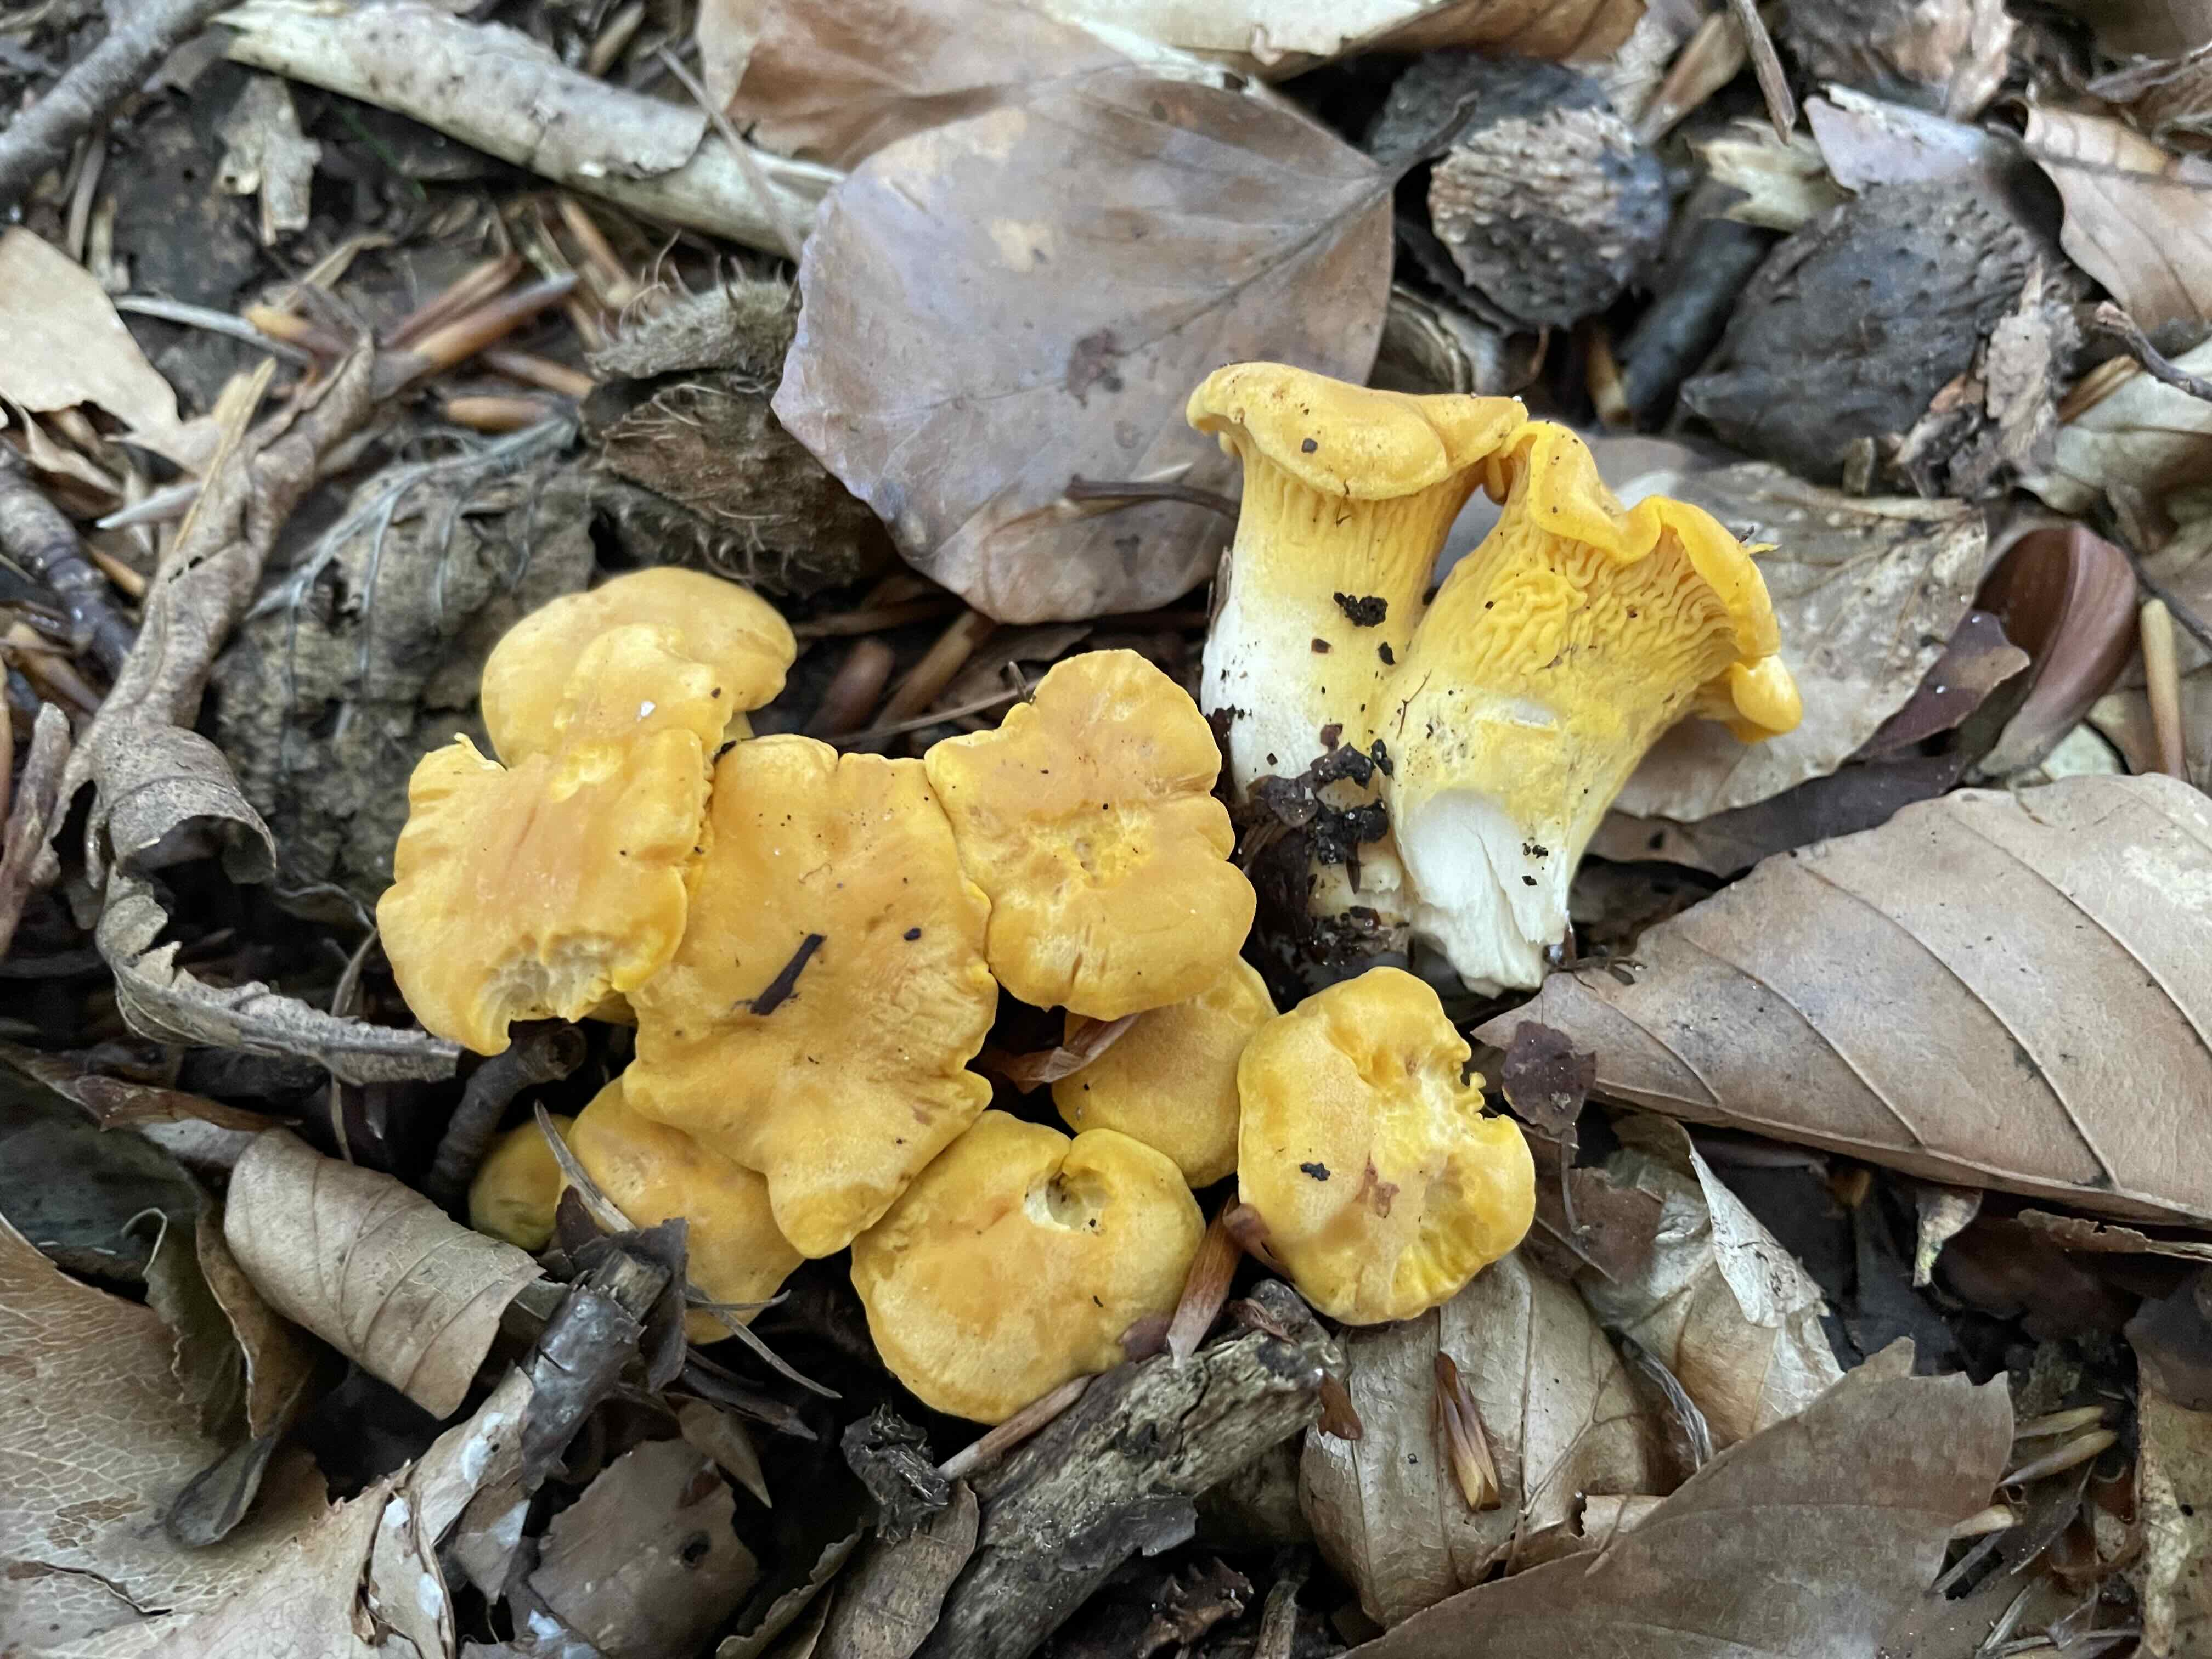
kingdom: Fungi
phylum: Basidiomycota
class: Agaricomycetes
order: Cantharellales
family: Hydnaceae
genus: Cantharellus
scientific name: Cantharellus pallens
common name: bleg kantarel
